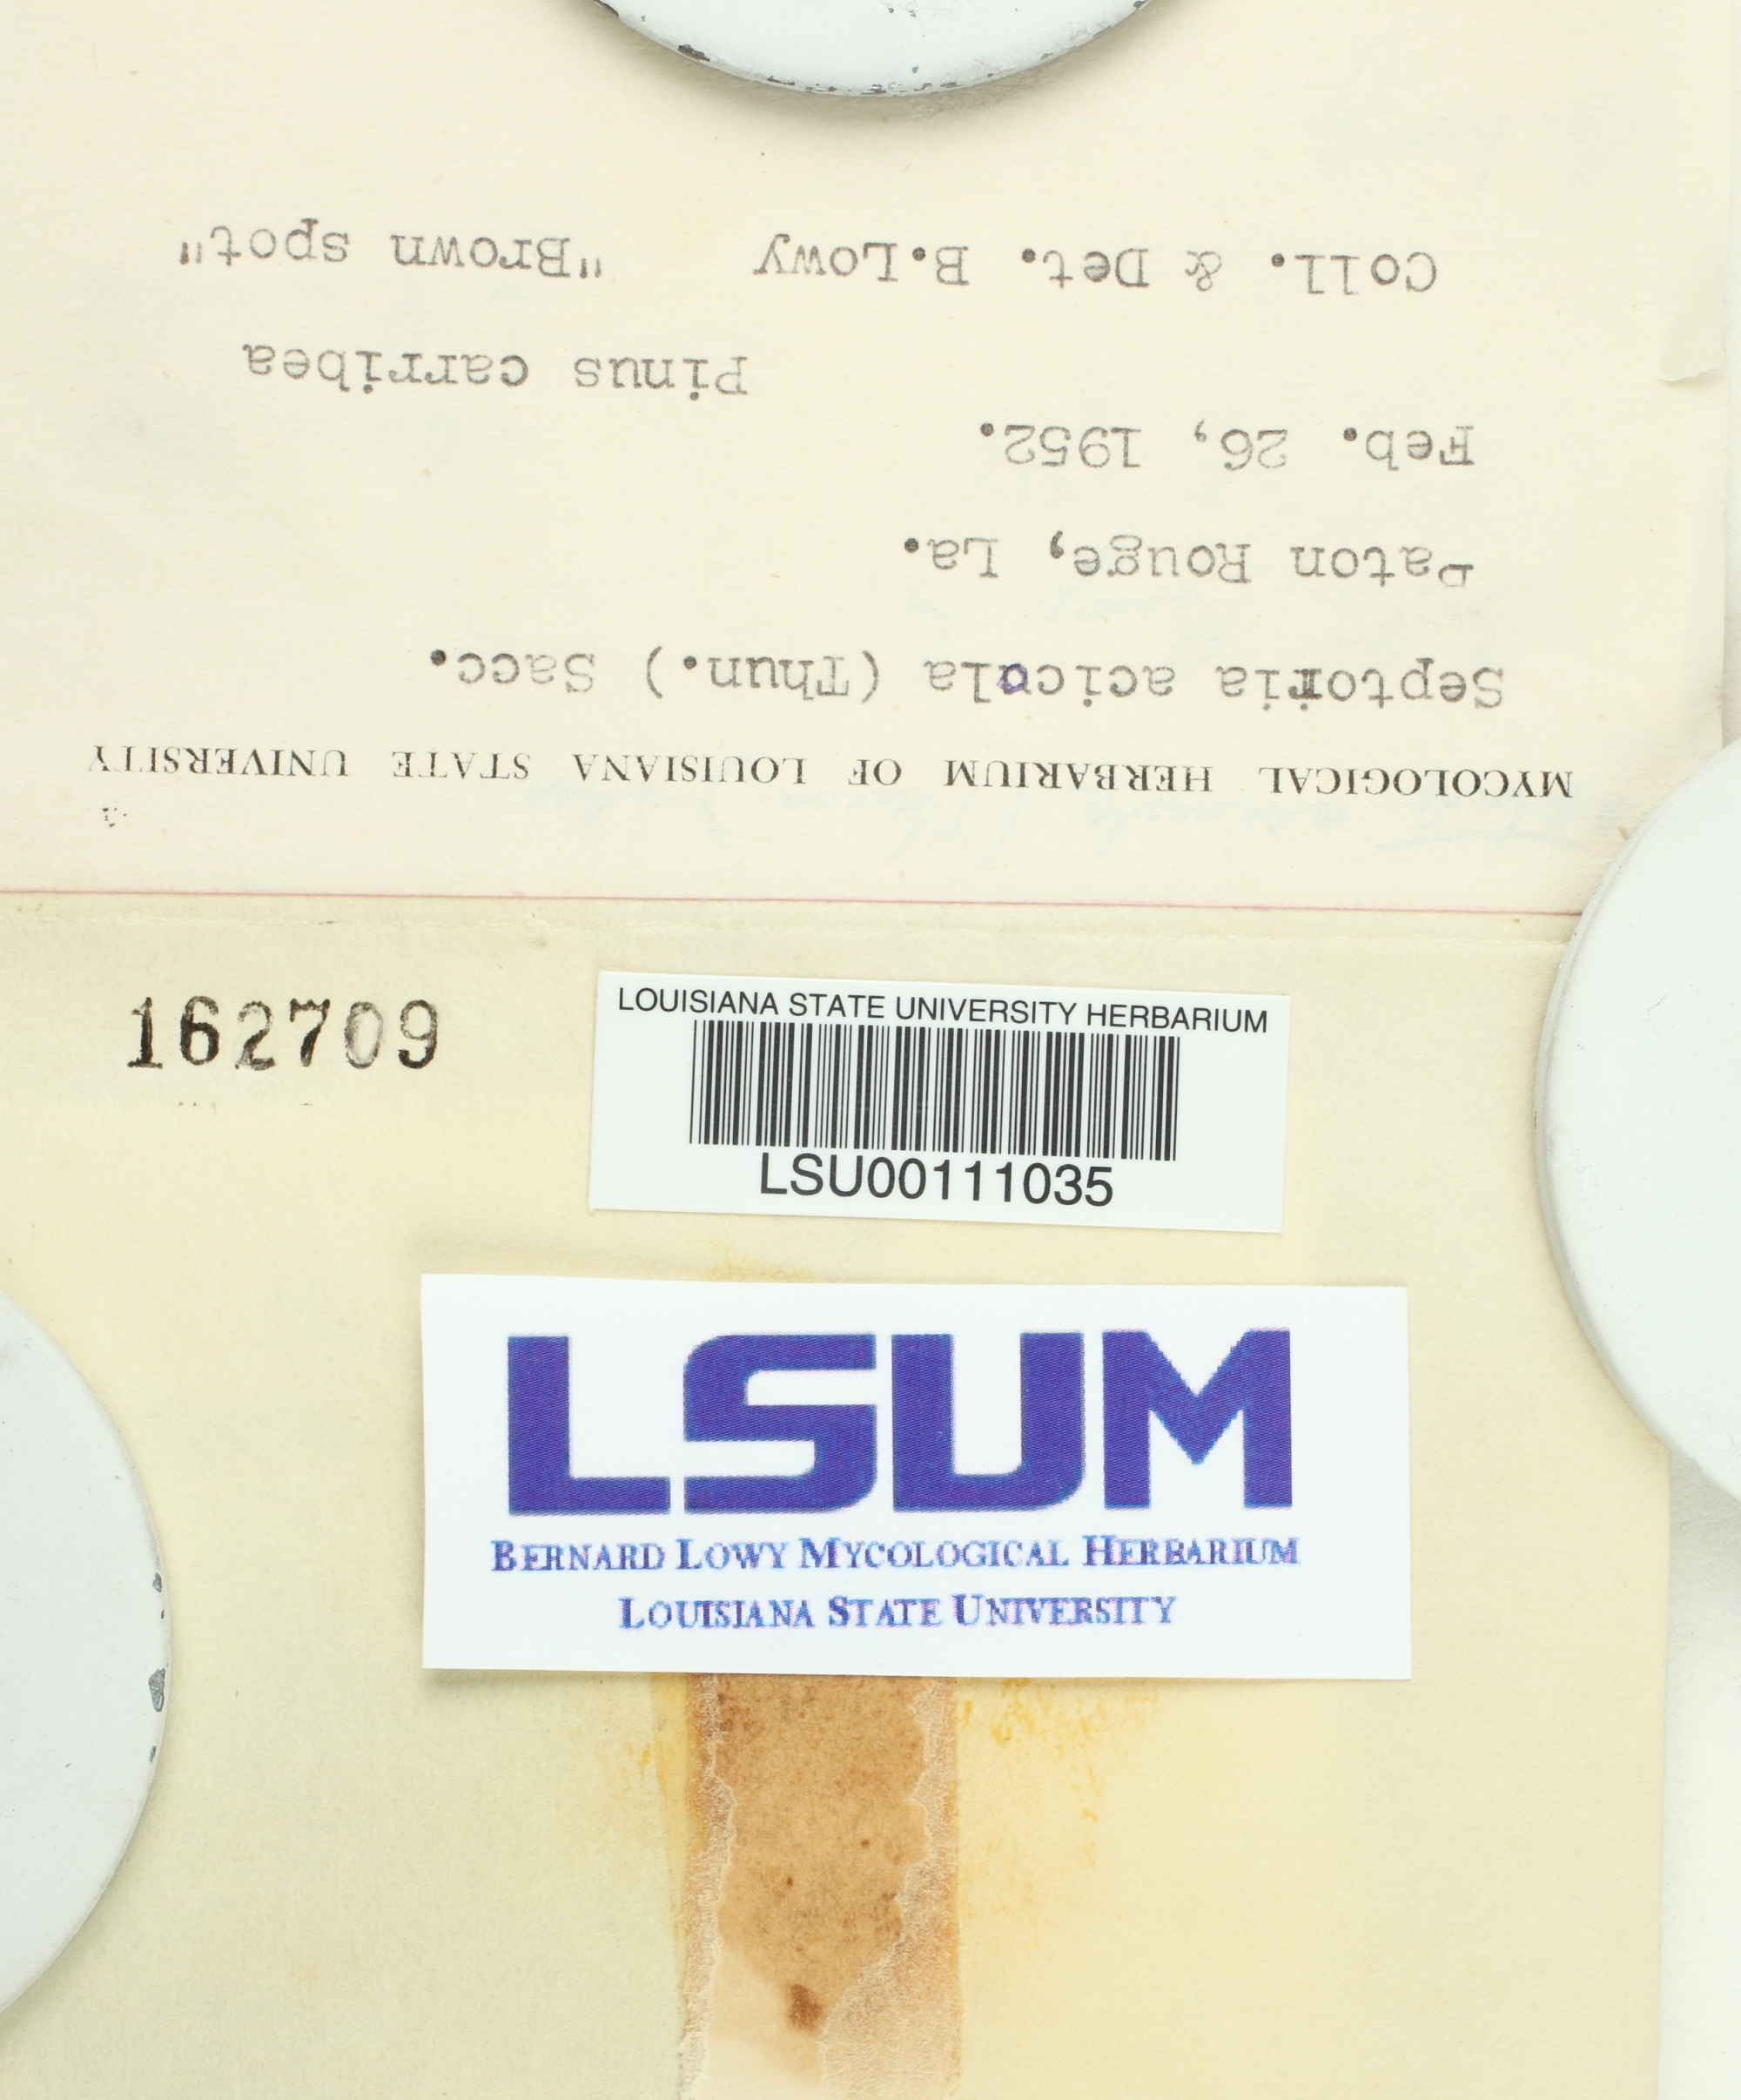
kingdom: Fungi
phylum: Ascomycota
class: Dothideomycetes
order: Mycosphaerellales
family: Mycosphaerellaceae
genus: Lecanosticta
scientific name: Lecanosticta acicola
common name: Brown spot needle blight
